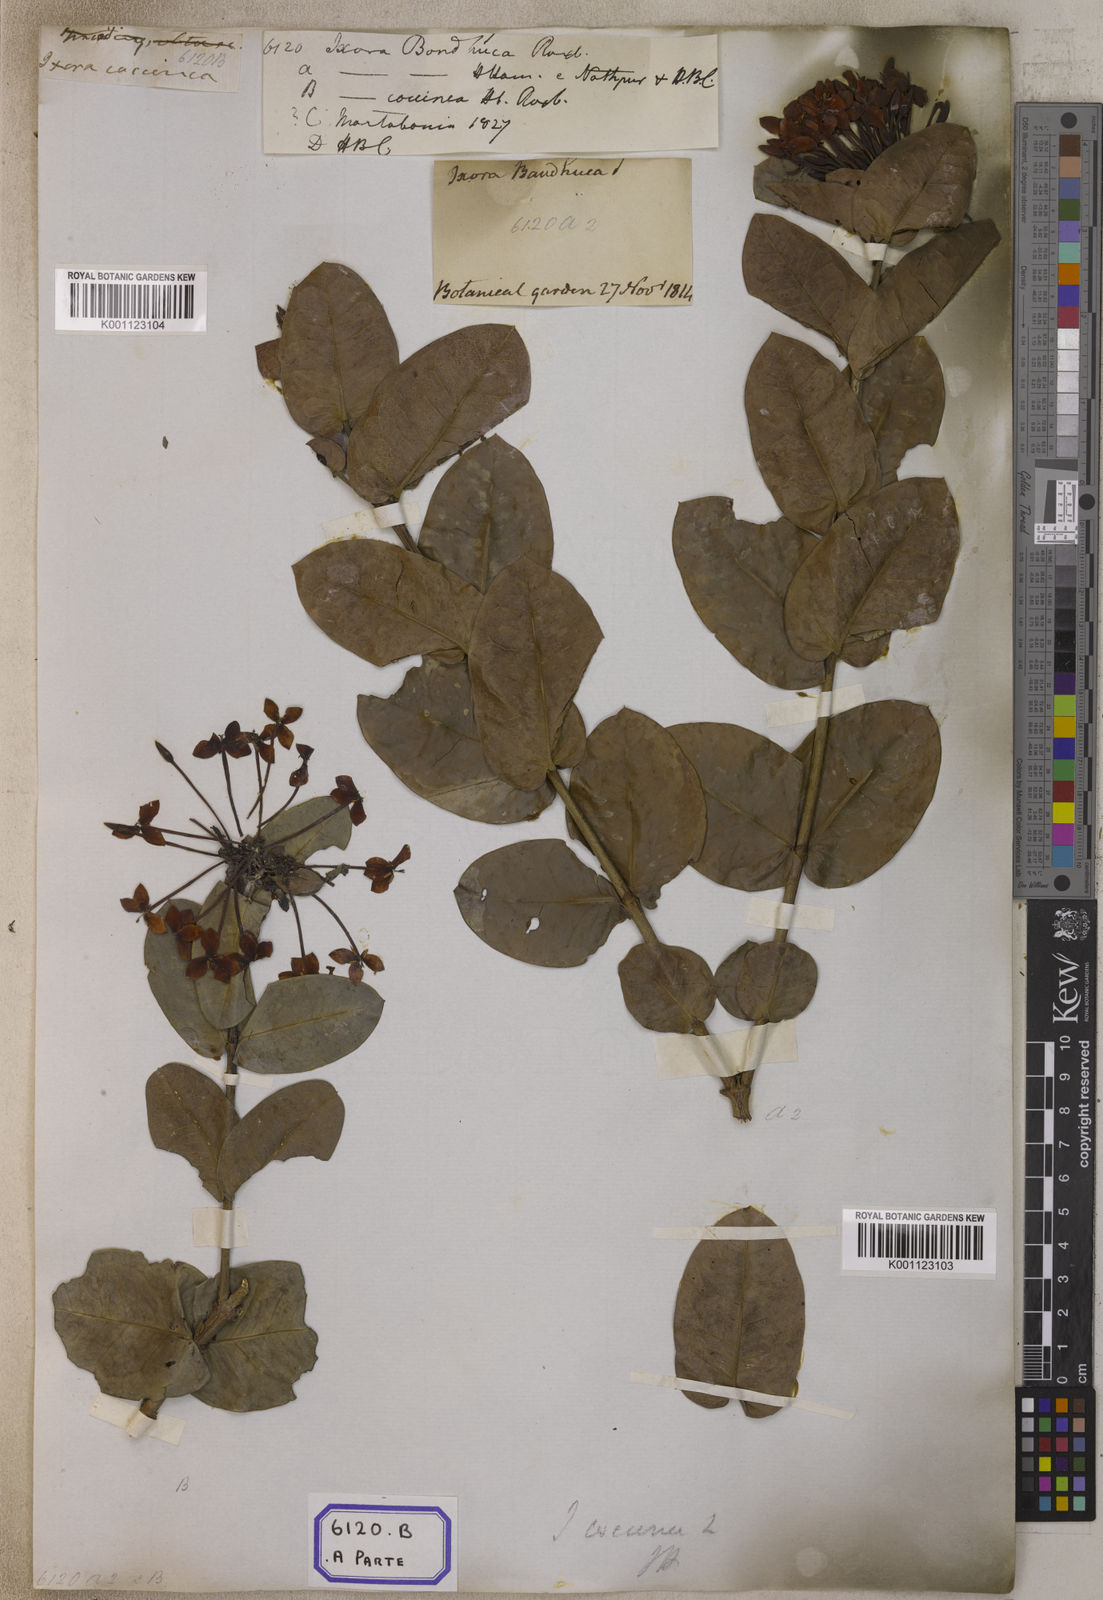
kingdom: Plantae
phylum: Tracheophyta
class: Magnoliopsida
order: Gentianales
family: Rubiaceae
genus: Ixora
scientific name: Ixora coccinea
